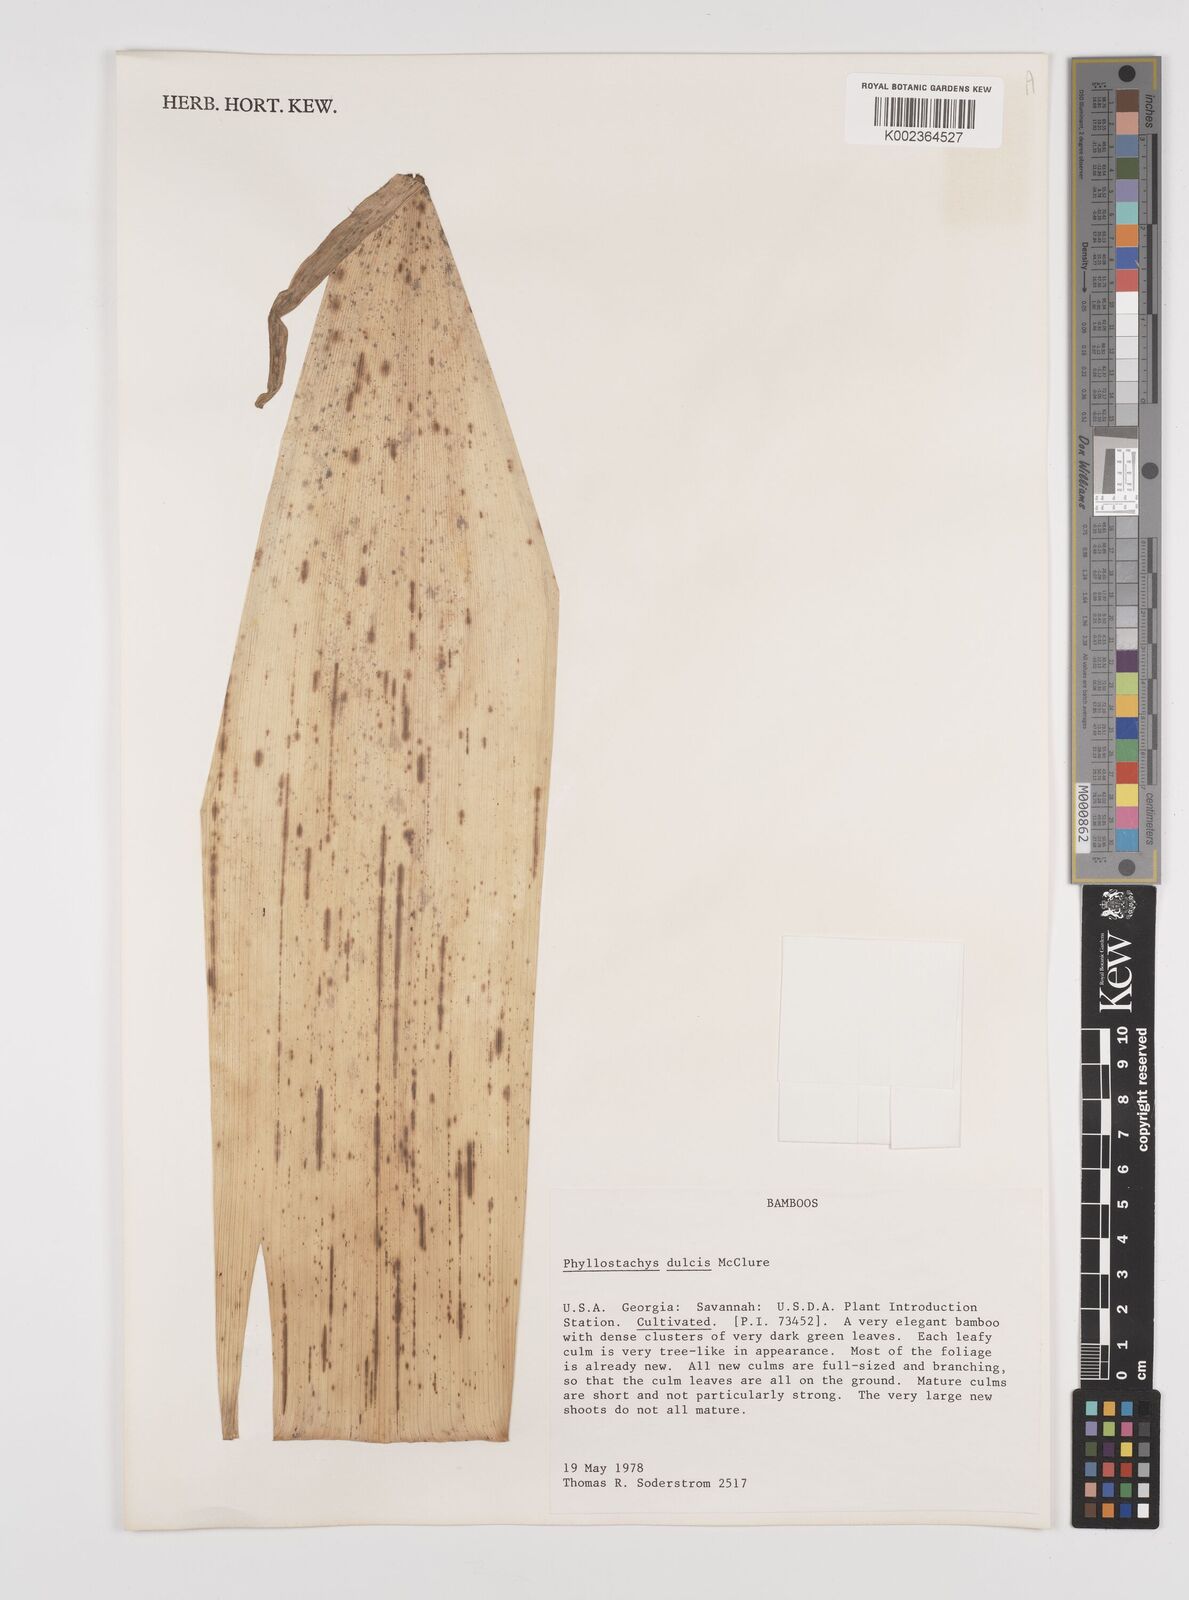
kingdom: Plantae
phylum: Tracheophyta
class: Liliopsida
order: Poales
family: Poaceae
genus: Phyllostachys
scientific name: Phyllostachys dulcis
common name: Sweetshoot bamboo
